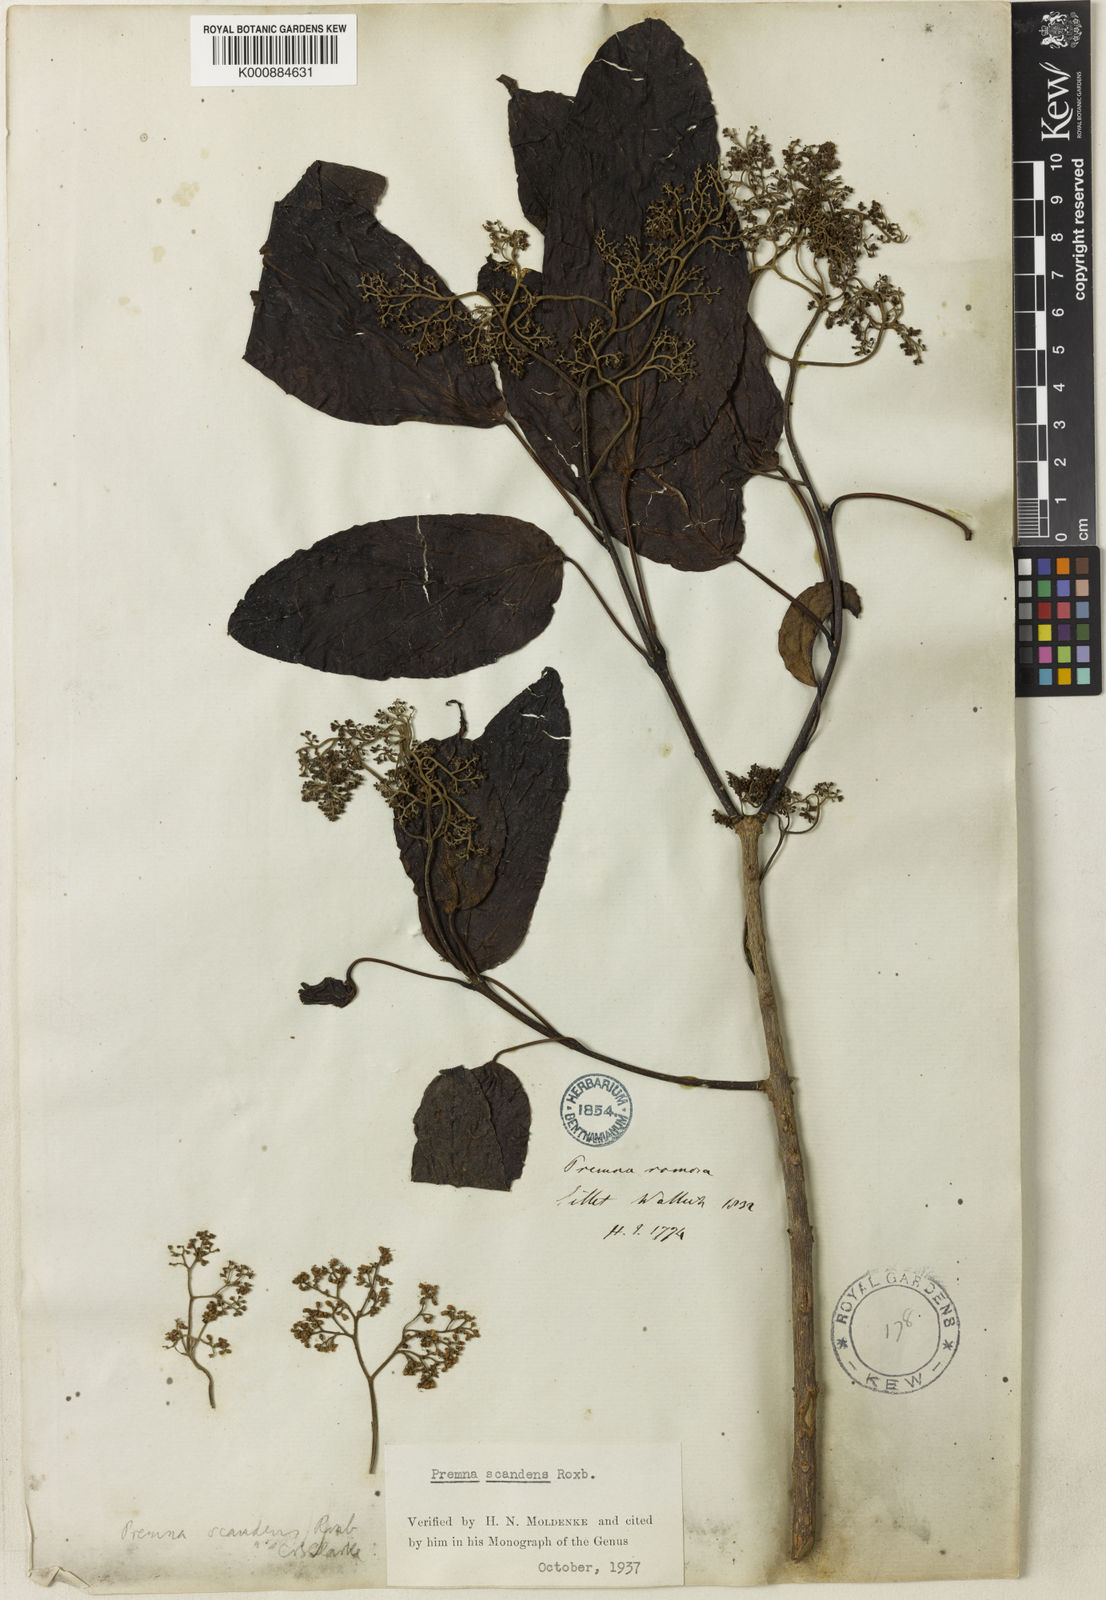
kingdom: Plantae
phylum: Tracheophyta
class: Magnoliopsida
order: Lamiales
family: Lamiaceae
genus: Premna
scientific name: Premna scandens
